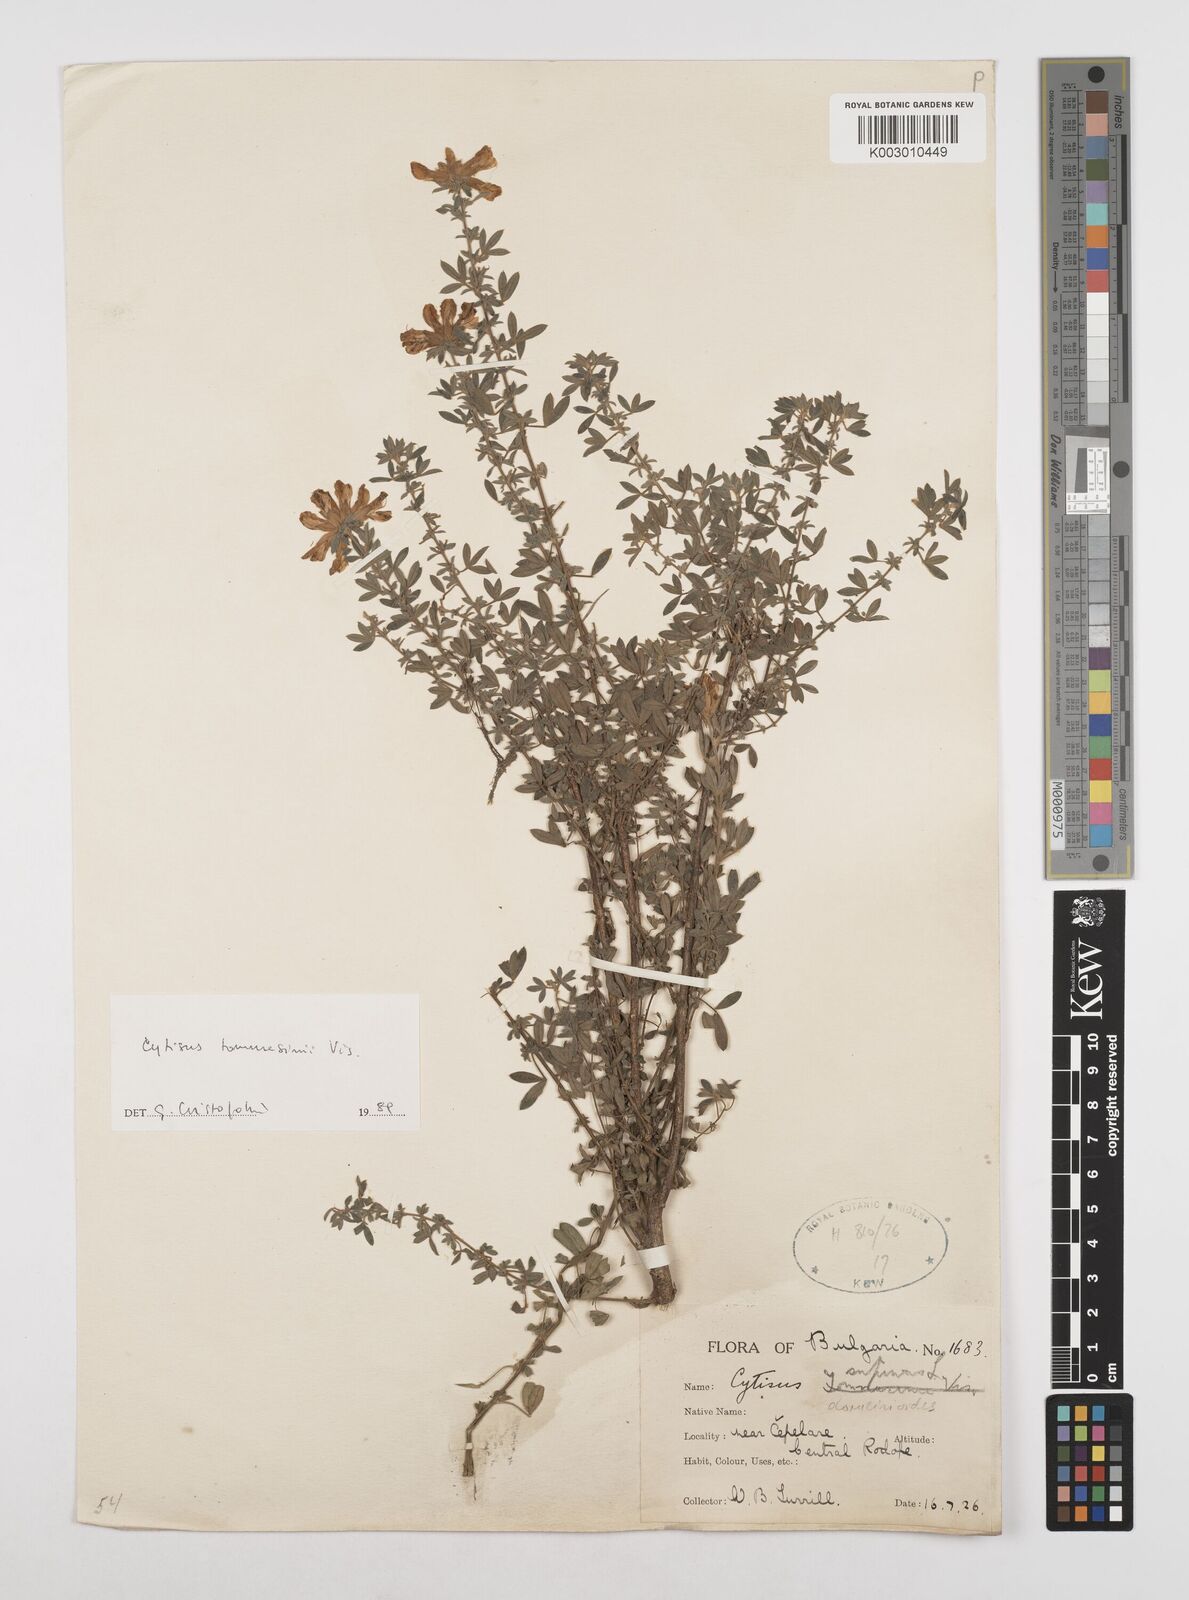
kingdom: Plantae
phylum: Tracheophyta
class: Magnoliopsida
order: Fabales
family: Fabaceae
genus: Chamaecytisus
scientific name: Chamaecytisus tommasinii
